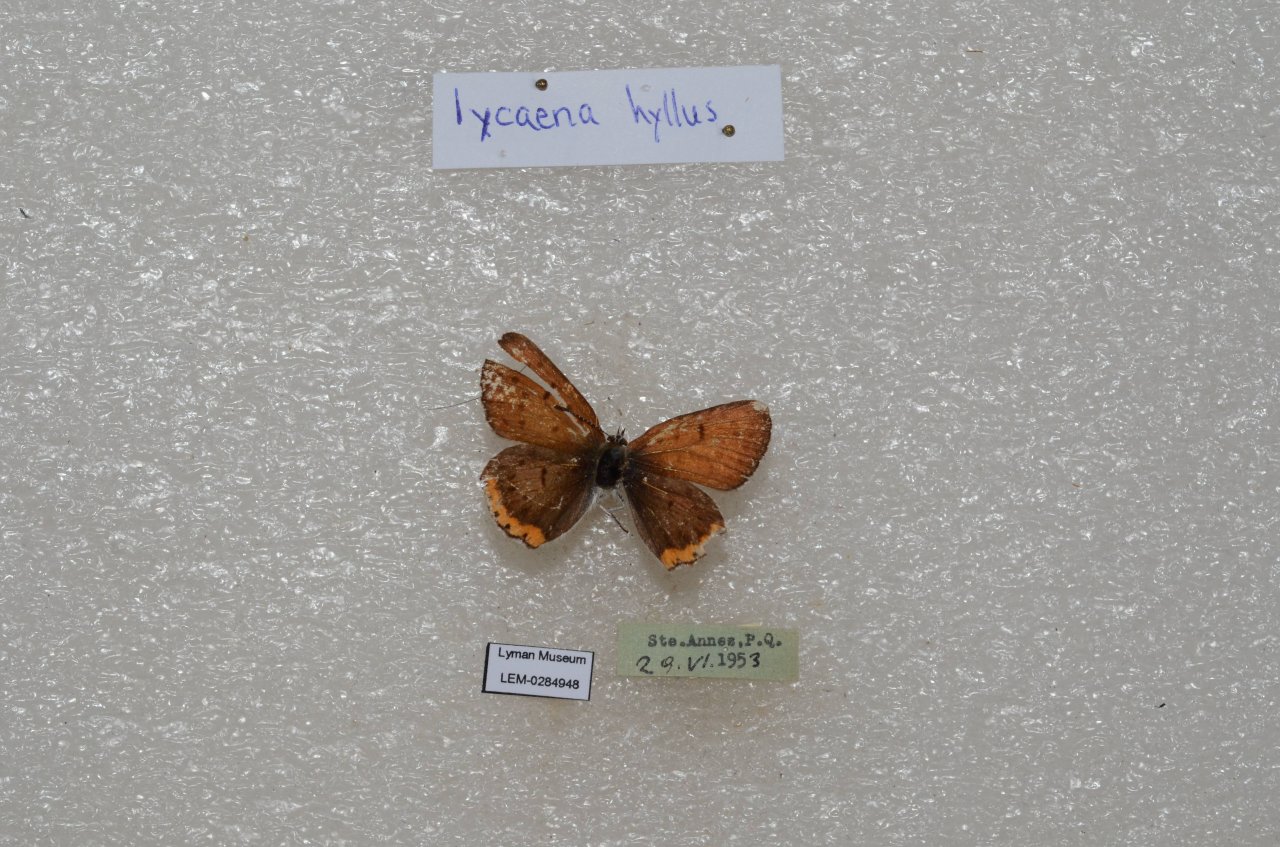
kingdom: Animalia
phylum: Arthropoda
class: Insecta
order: Lepidoptera
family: Sesiidae
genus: Sesia
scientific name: Sesia Lycaena hyllus
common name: Bronze Copper
